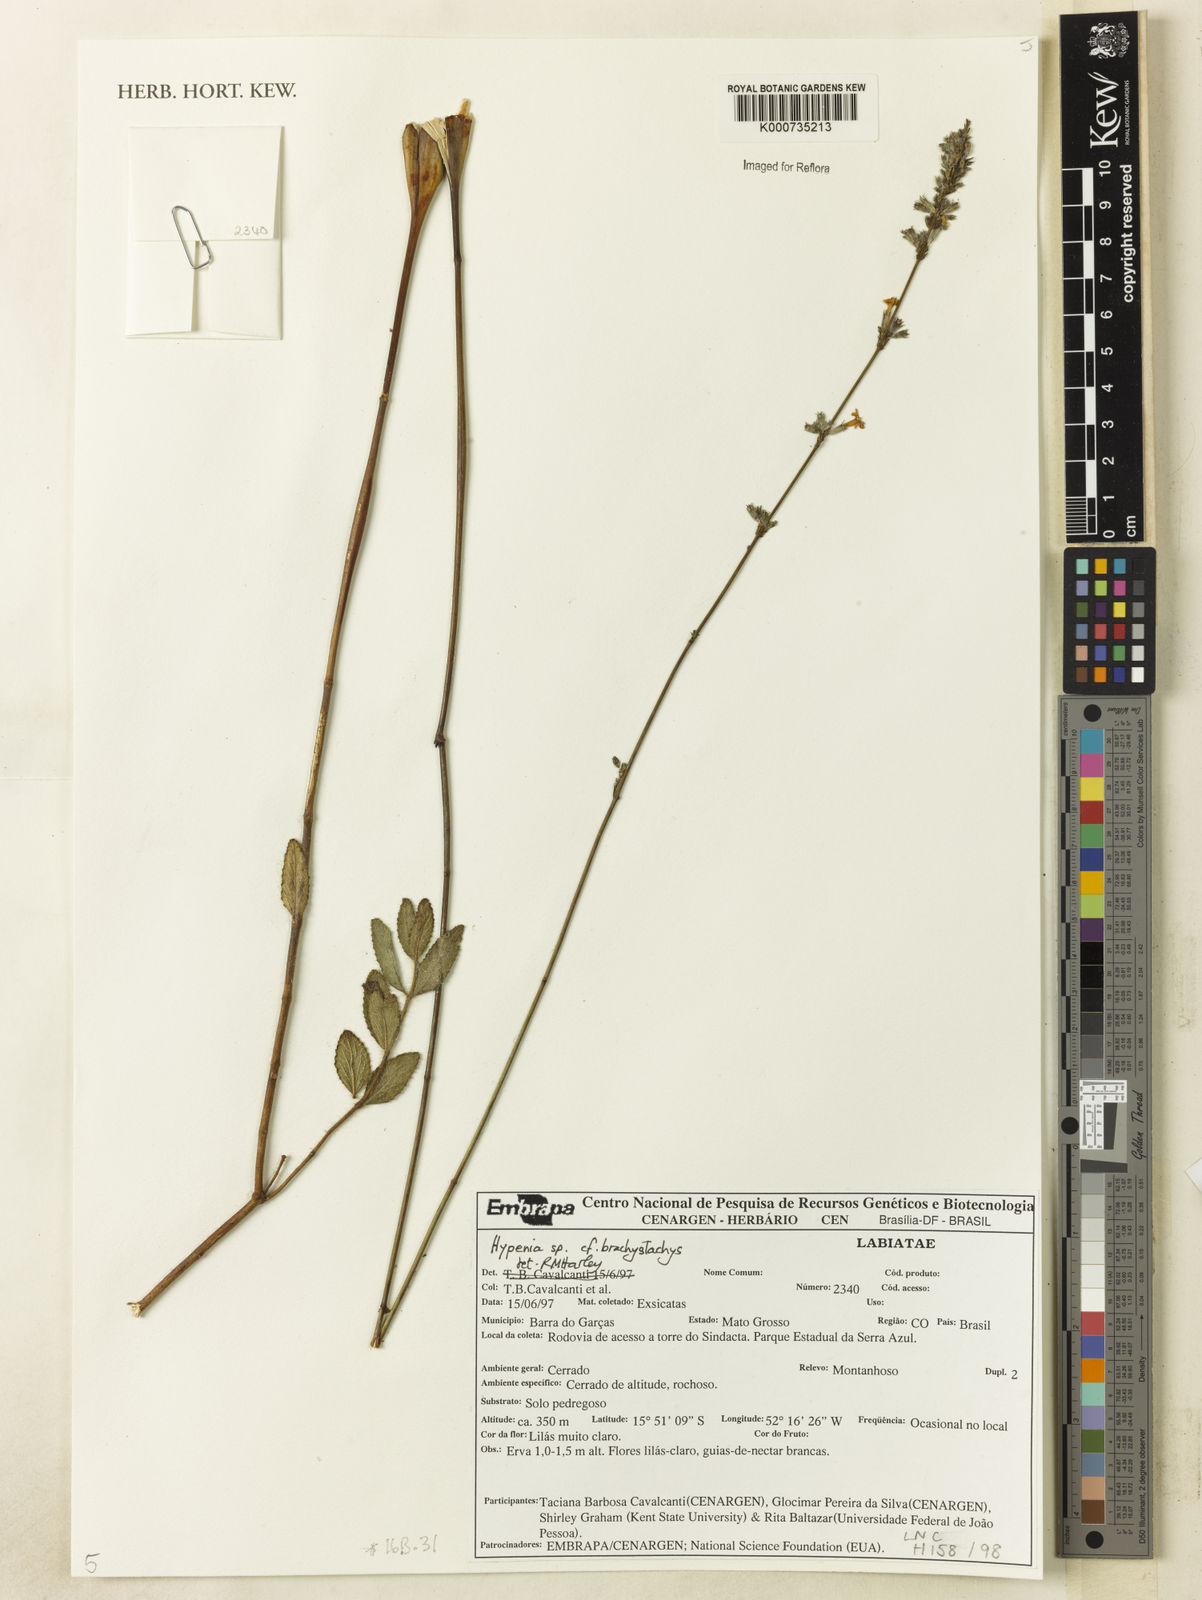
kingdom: Plantae
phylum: Tracheophyta
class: Magnoliopsida
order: Lamiales
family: Lamiaceae
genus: Hypenia
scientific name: Hypenia
